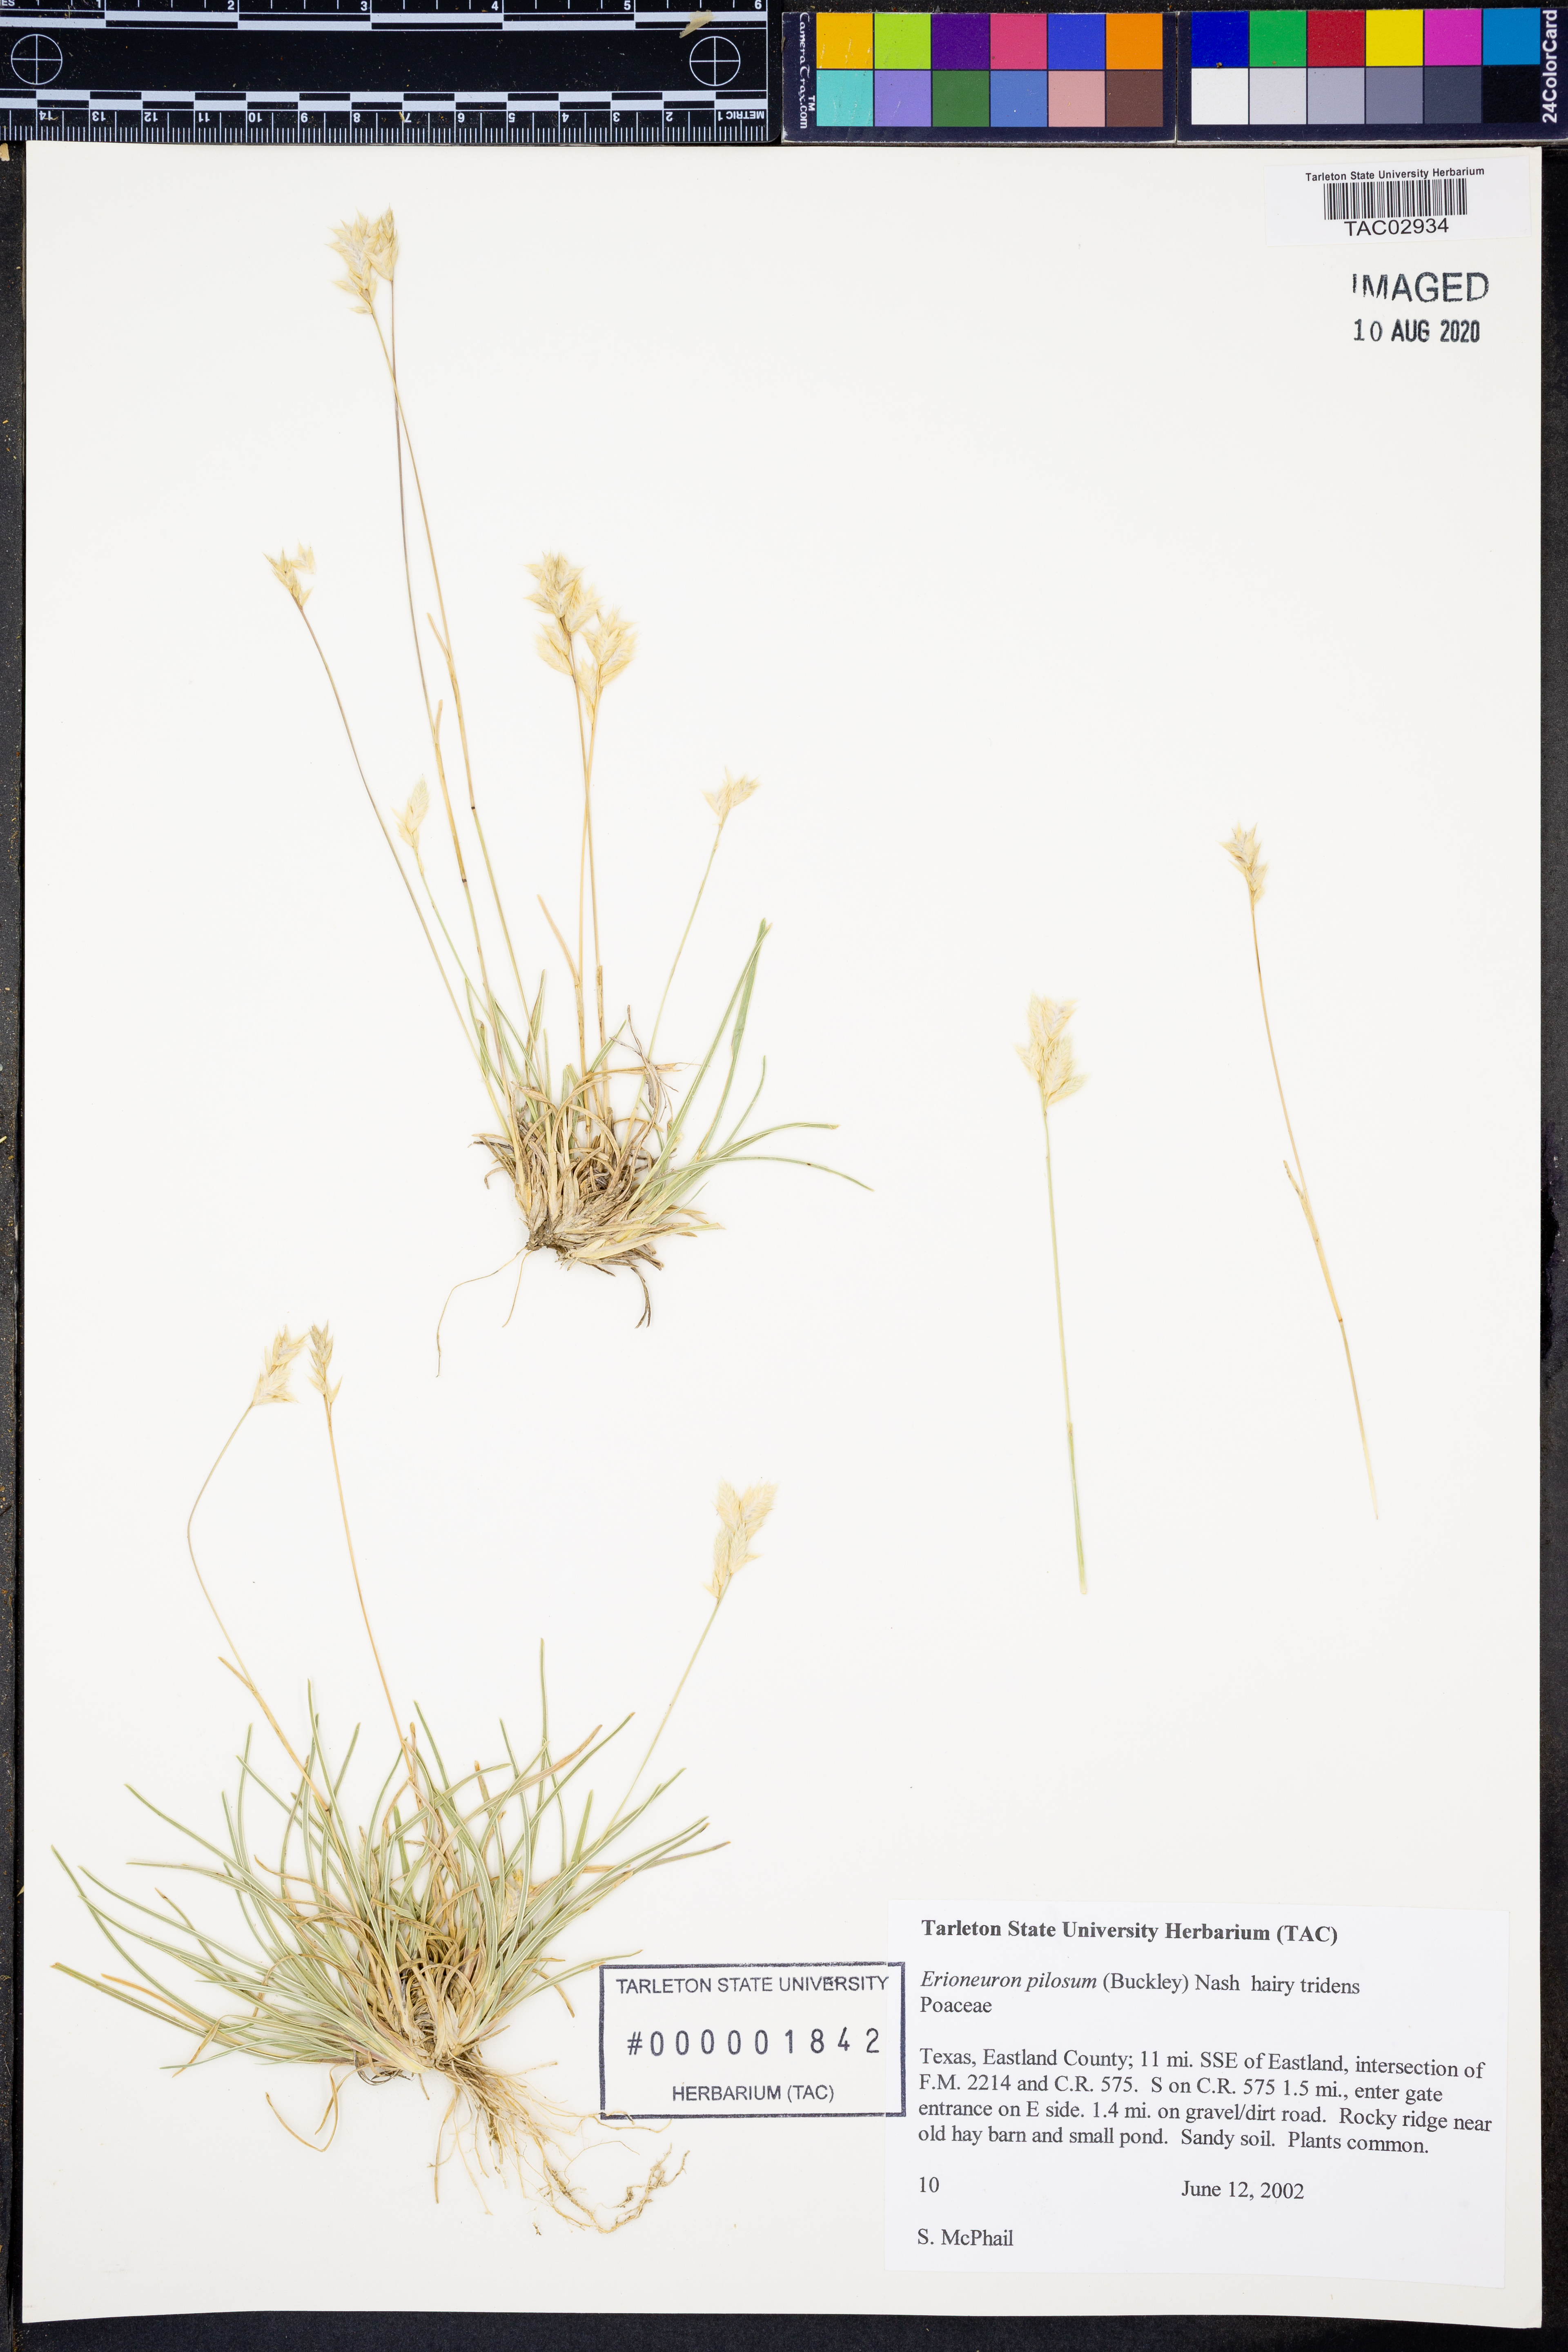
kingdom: Plantae
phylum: Tracheophyta
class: Liliopsida
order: Poales
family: Poaceae
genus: Erioneuron
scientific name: Erioneuron pilosum
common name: Hairy woolly grass
